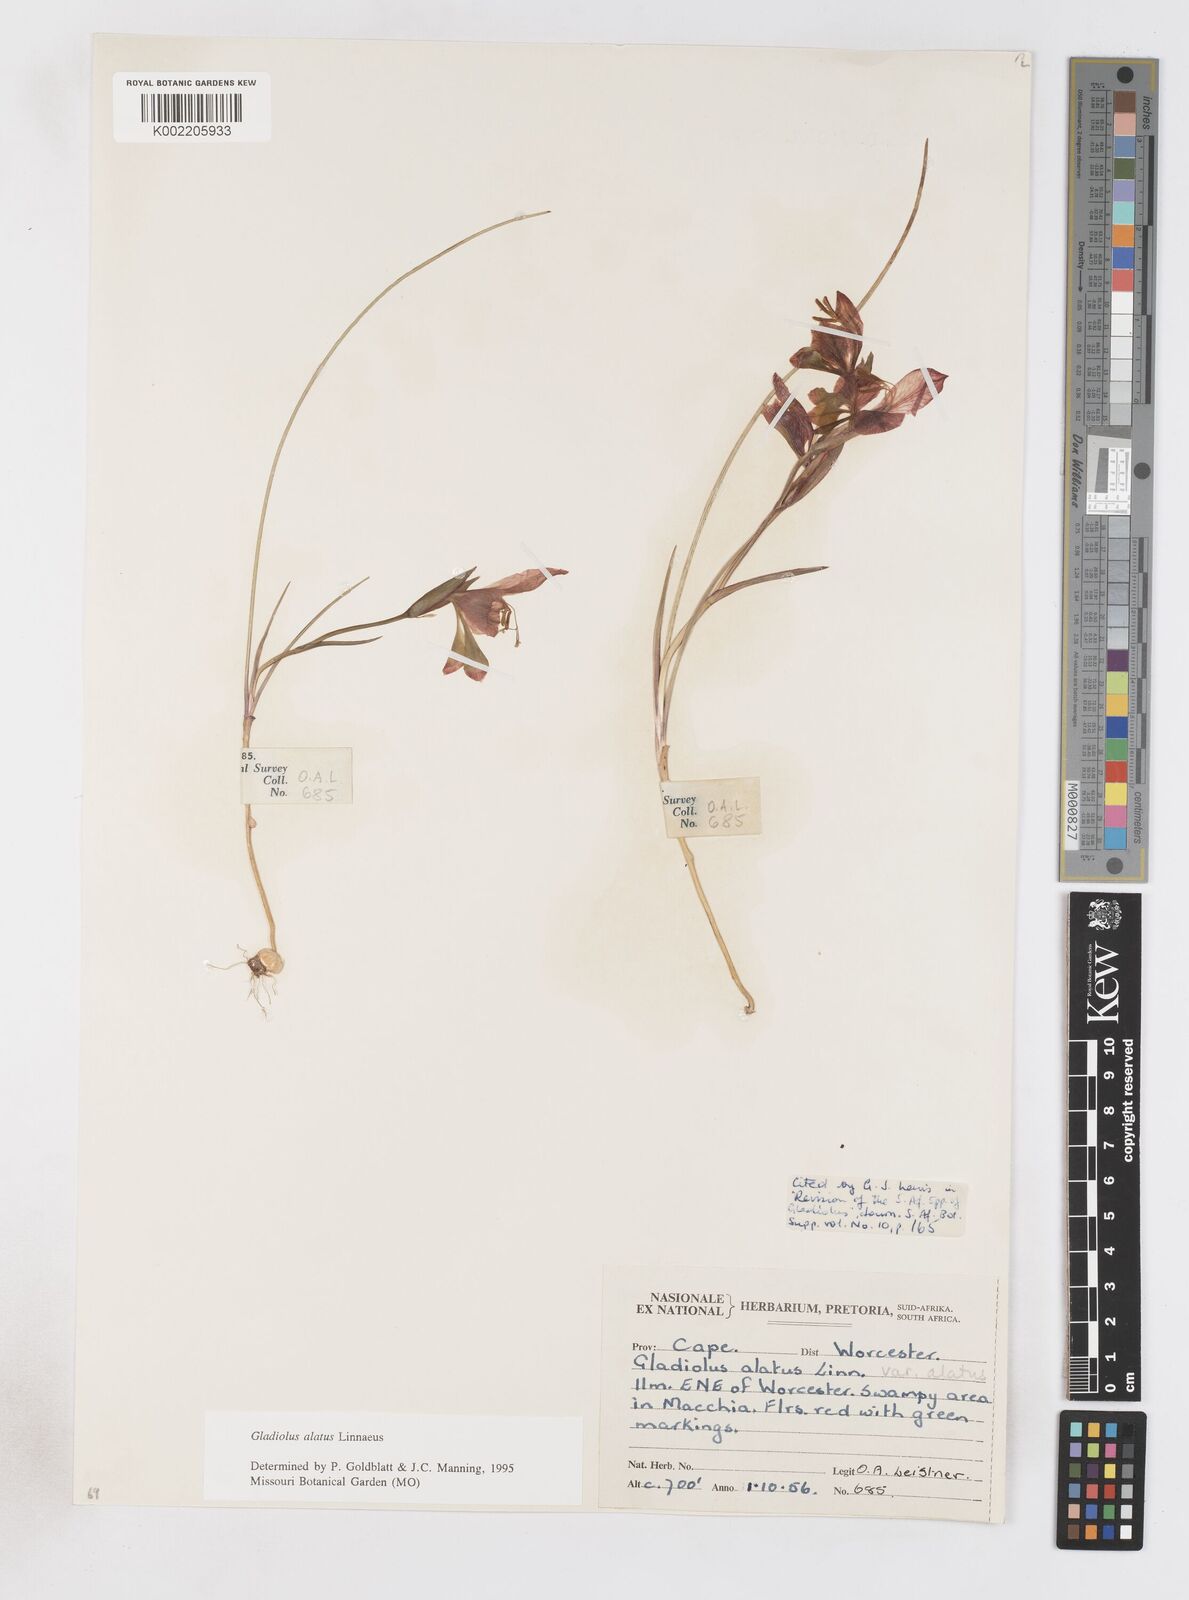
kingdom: Plantae
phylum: Tracheophyta
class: Liliopsida
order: Asparagales
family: Iridaceae
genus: Gladiolus
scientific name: Gladiolus alatus
